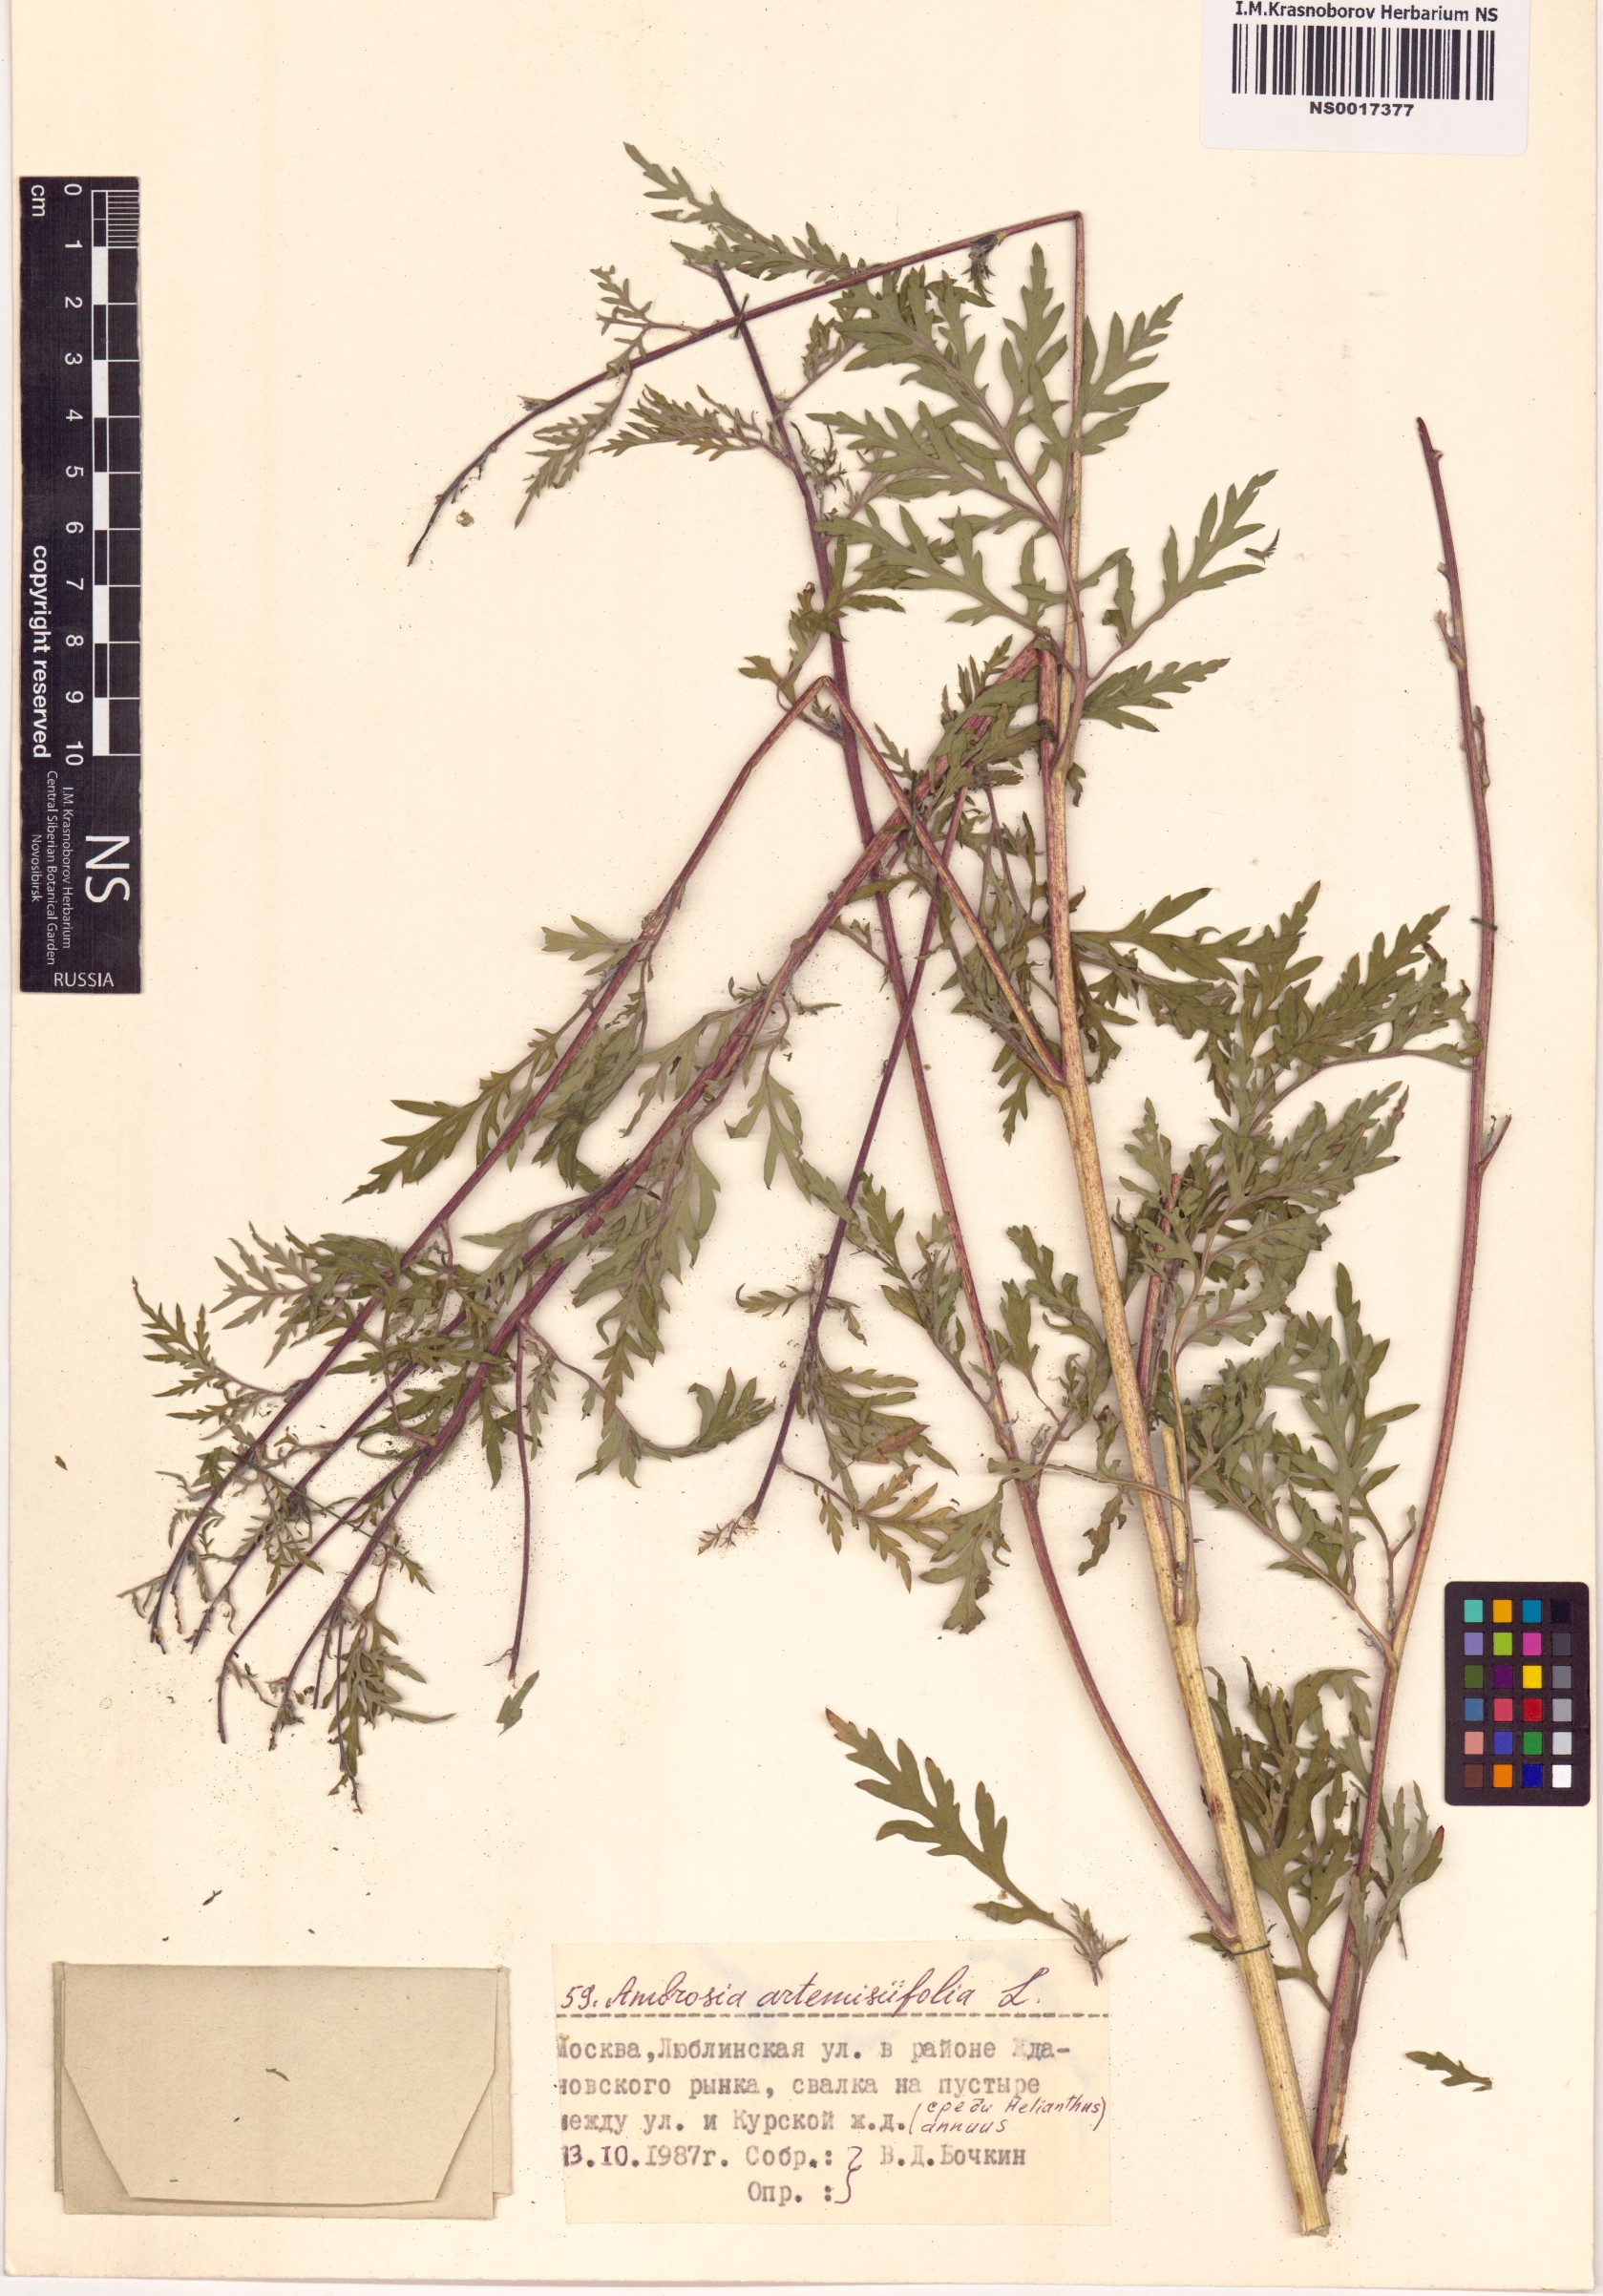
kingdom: Plantae
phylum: Tracheophyta
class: Magnoliopsida
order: Asterales
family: Asteraceae
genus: Ambrosia
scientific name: Ambrosia artemisiifolia
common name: Annual ragweed
